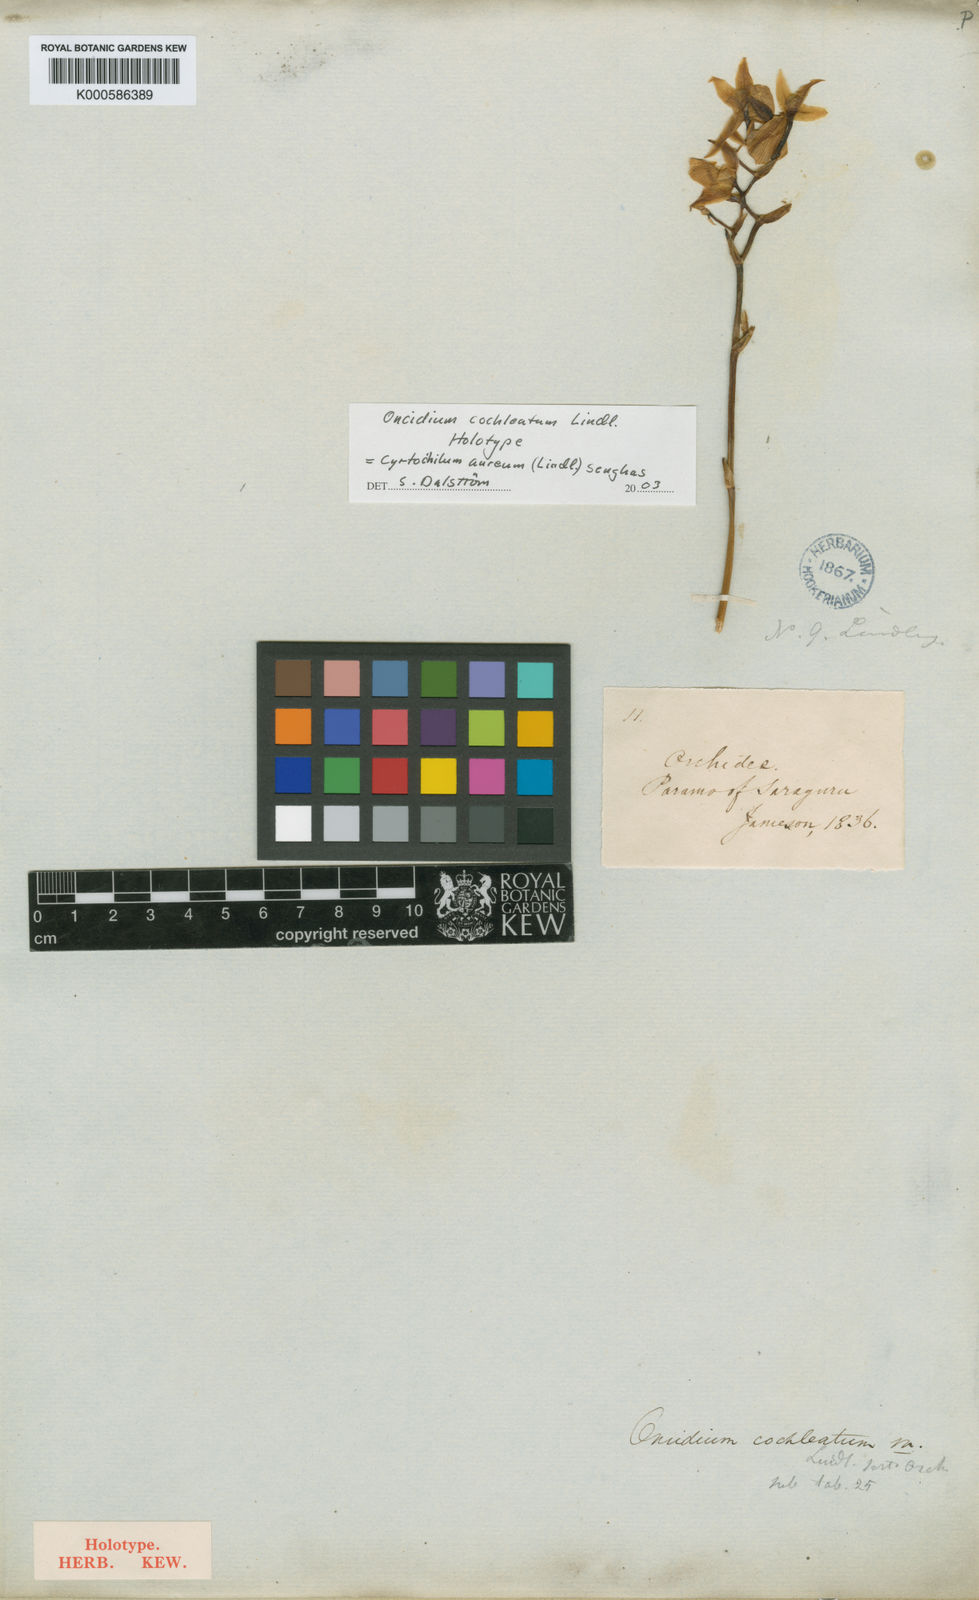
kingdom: Plantae
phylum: Tracheophyta
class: Liliopsida
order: Asparagales
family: Orchidaceae
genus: Cyrtochilum
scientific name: Cyrtochilum aureum
